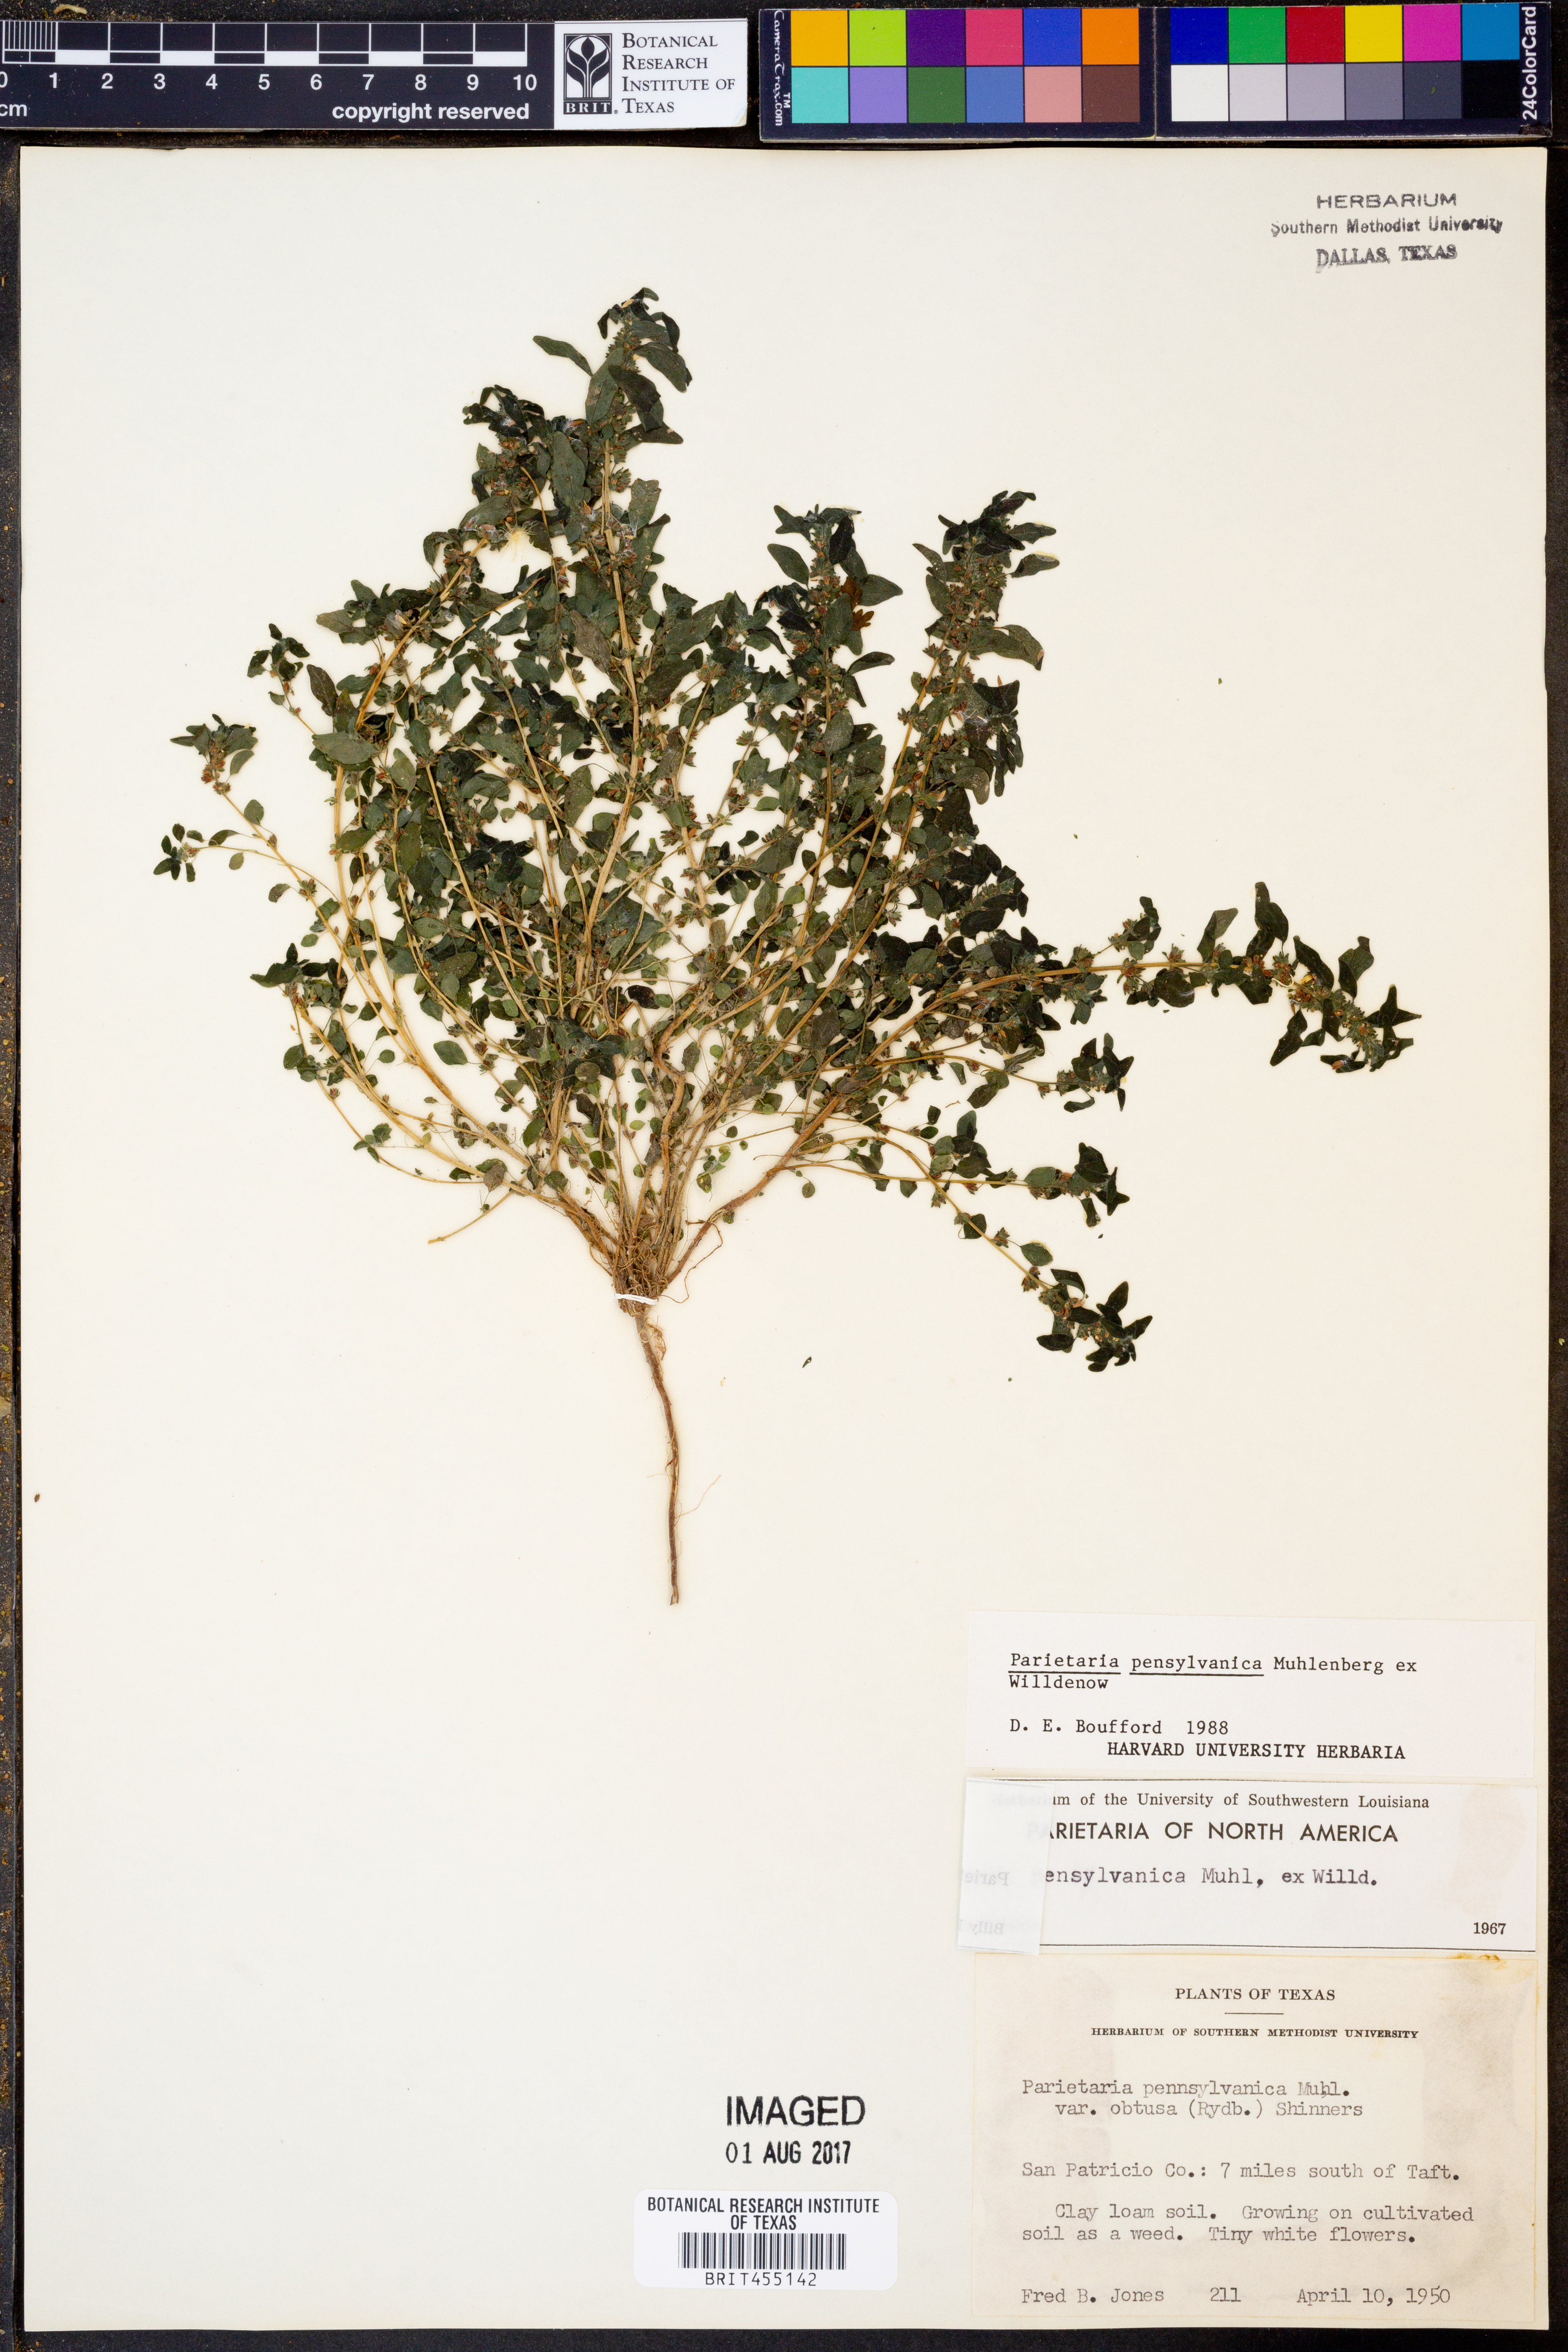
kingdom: Plantae
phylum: Tracheophyta
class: Magnoliopsida
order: Rosales
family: Urticaceae
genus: Parietaria
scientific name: Parietaria pensylvanica
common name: Pennsylvania pellitory
